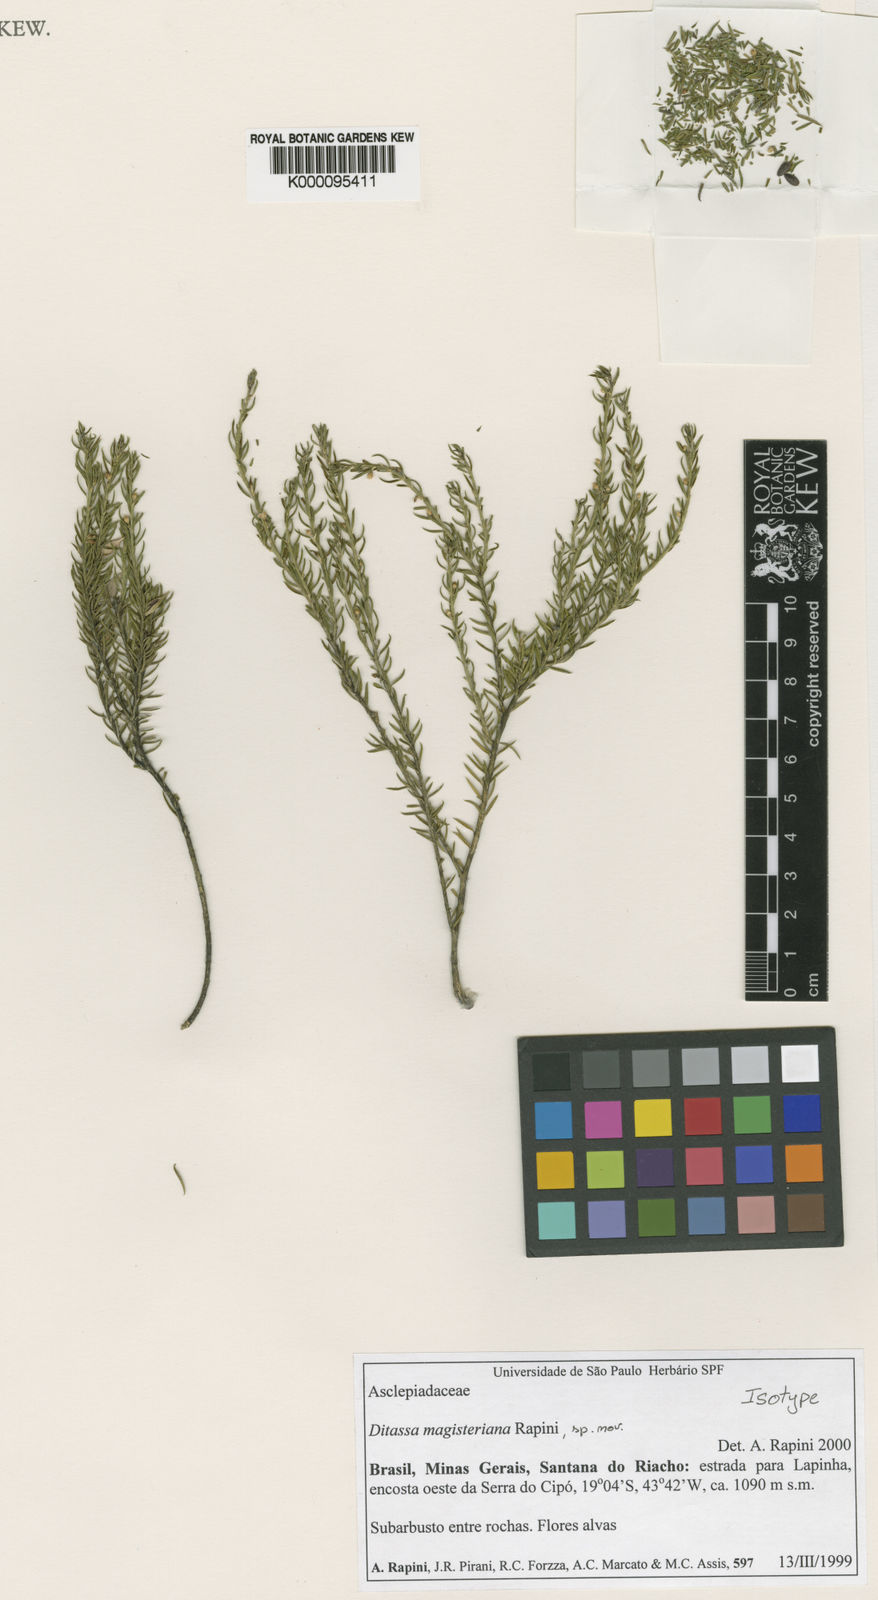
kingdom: Plantae
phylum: Tracheophyta
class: Magnoliopsida
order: Gentianales
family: Apocynaceae
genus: Minaria
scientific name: Minaria magisteriana
